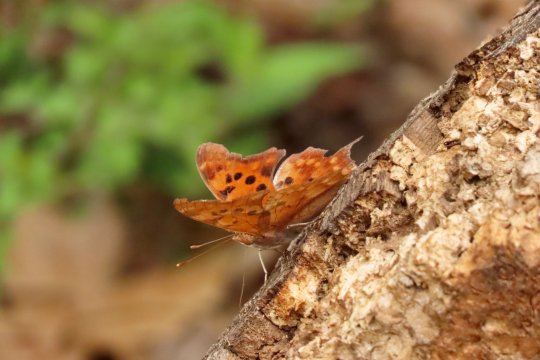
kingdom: Animalia
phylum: Arthropoda
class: Insecta
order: Lepidoptera
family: Nymphalidae
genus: Polygonia
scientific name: Polygonia interrogationis
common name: Question Mark
